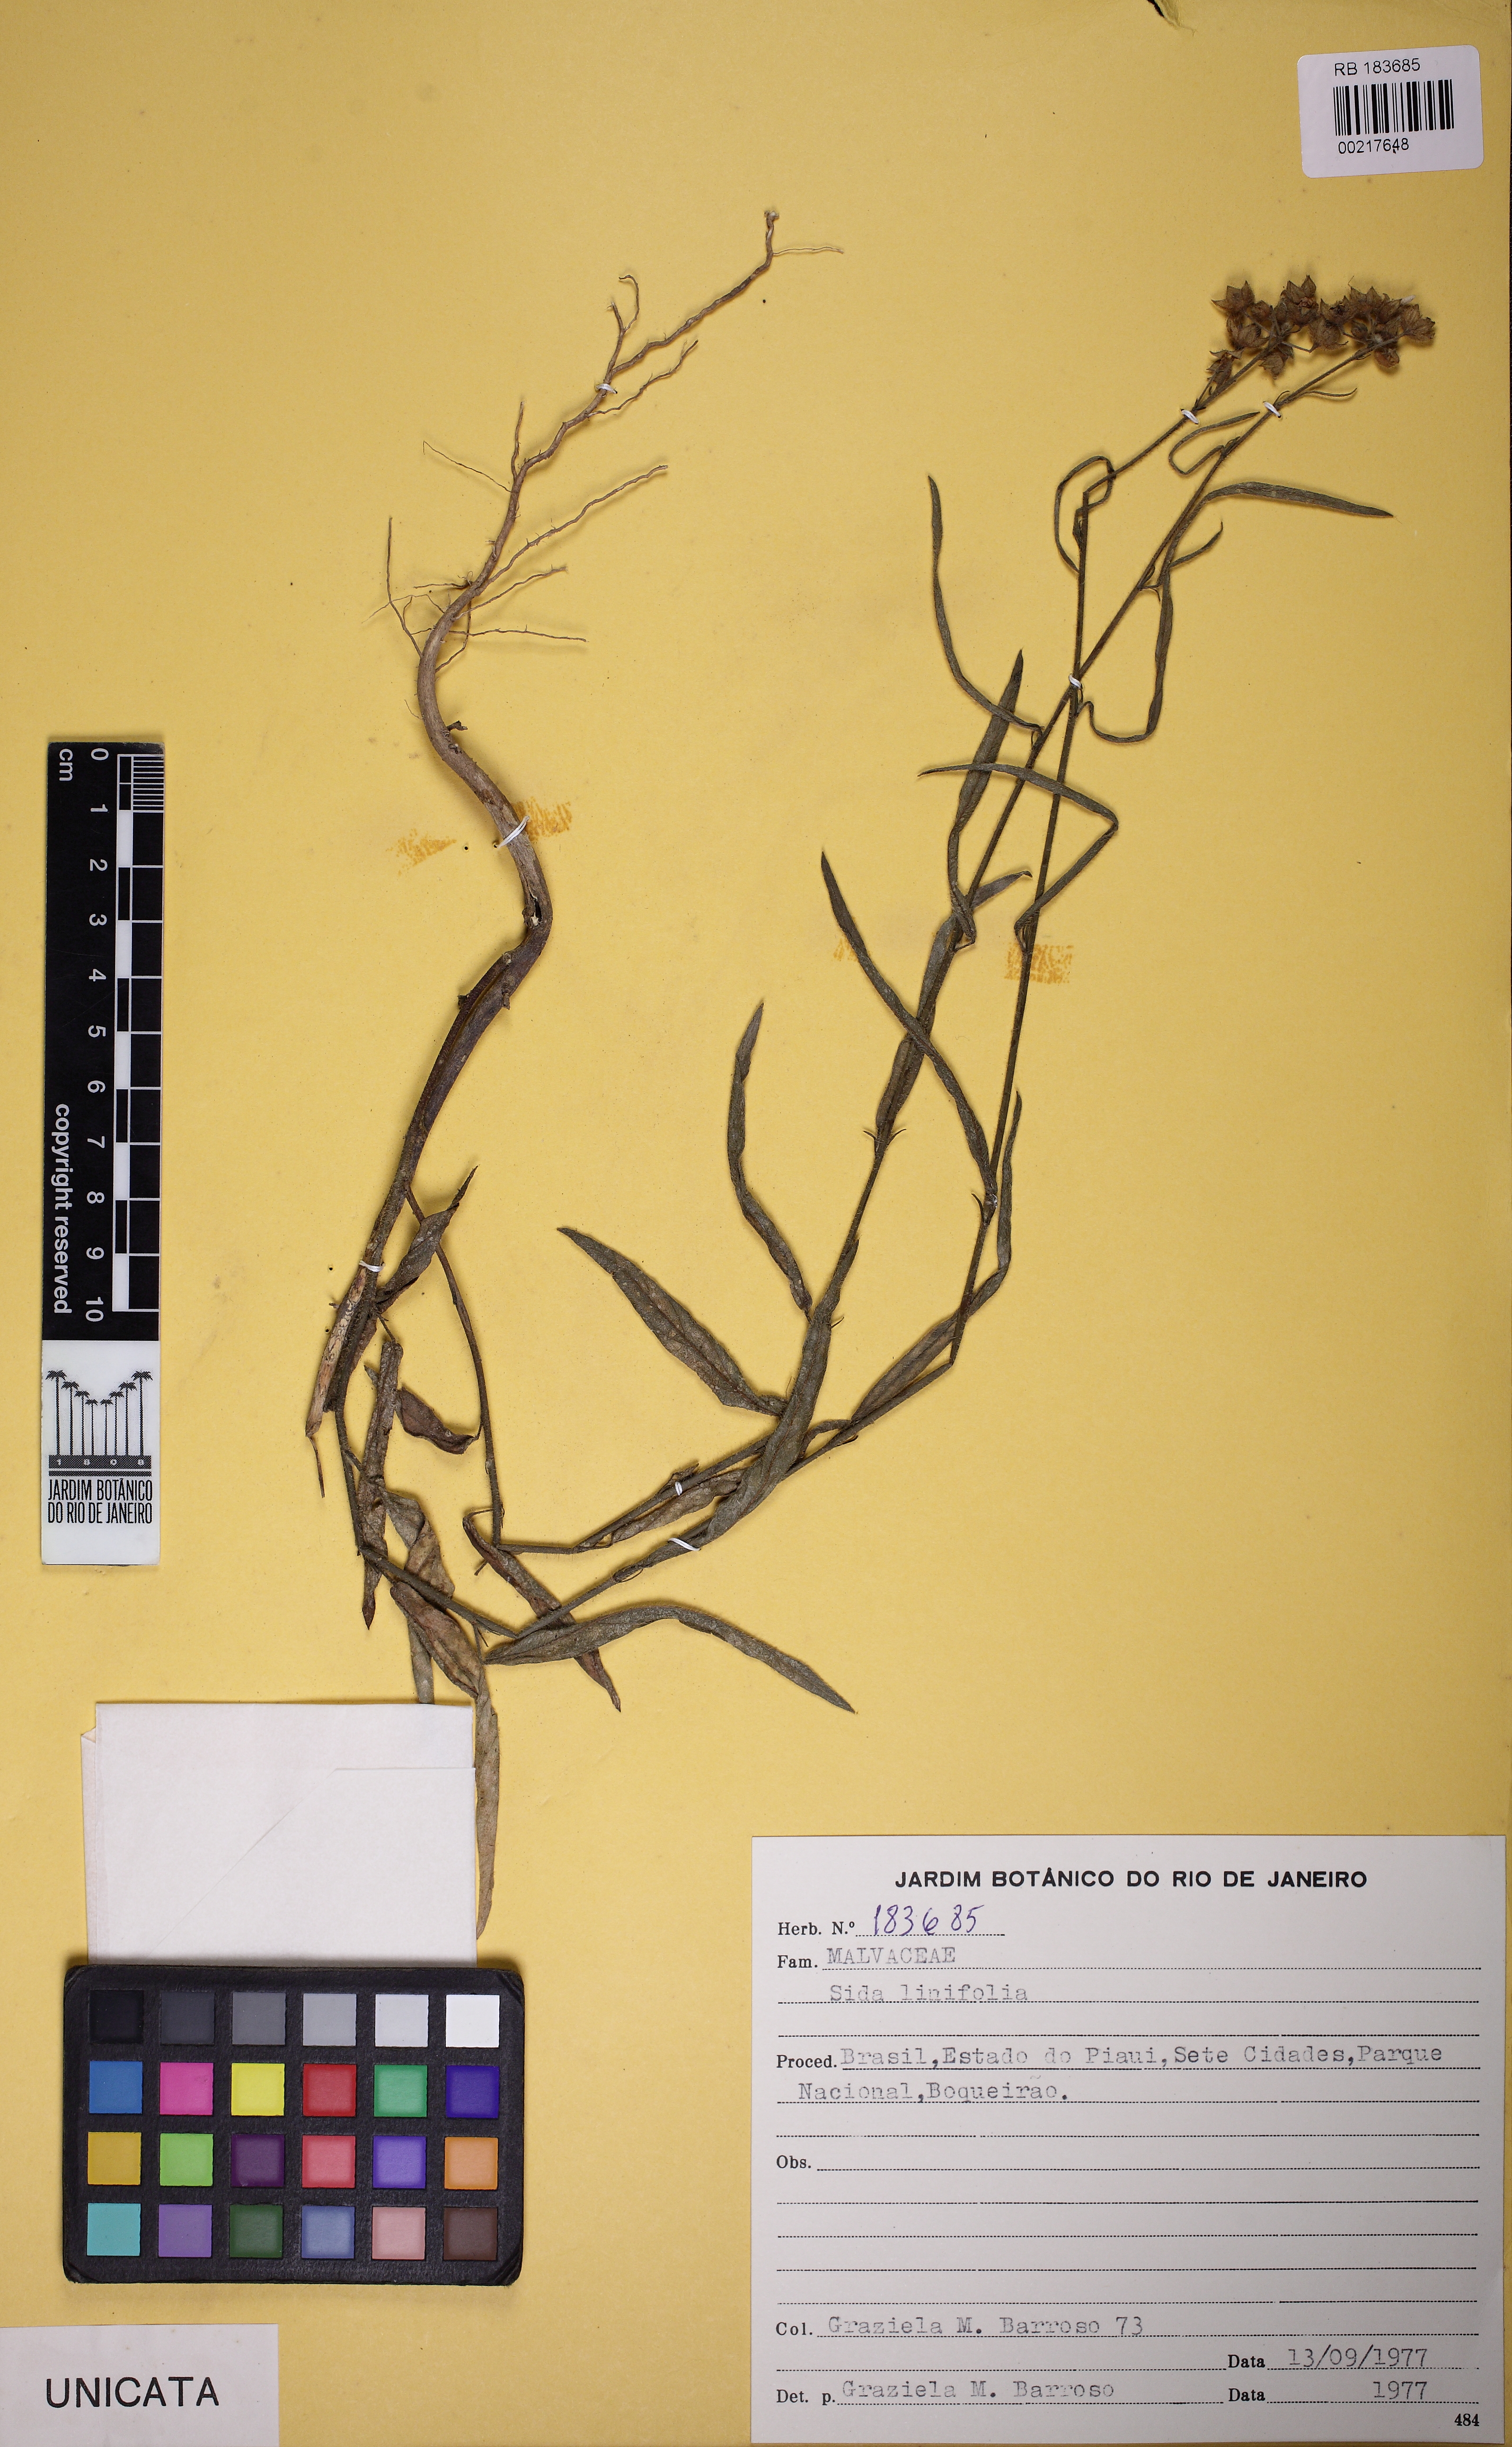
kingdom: Plantae
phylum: Tracheophyta
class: Magnoliopsida
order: Malvales
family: Malvaceae
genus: Sida
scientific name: Sida linifolia
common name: Flaxleaf fanpetals
